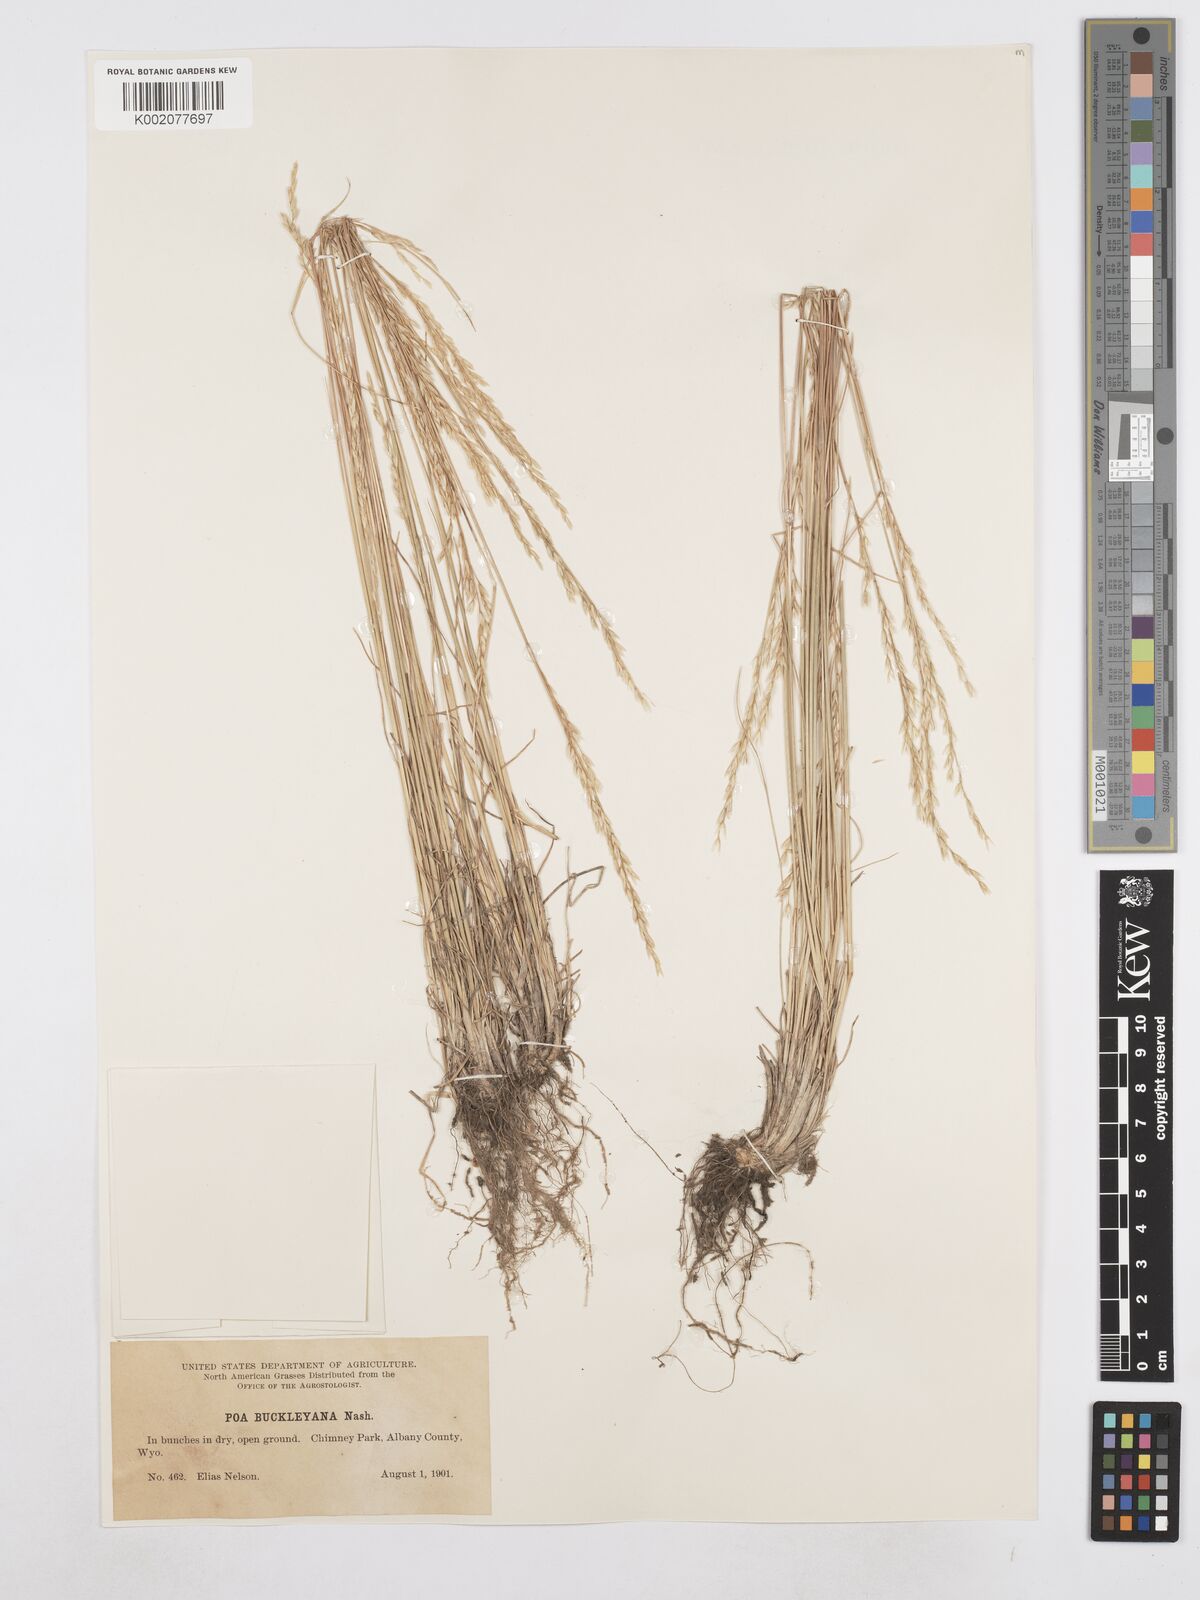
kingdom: Plantae
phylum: Tracheophyta
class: Liliopsida
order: Poales
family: Poaceae
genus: Poa
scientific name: Poa secunda
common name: Sandberg bluegrass
